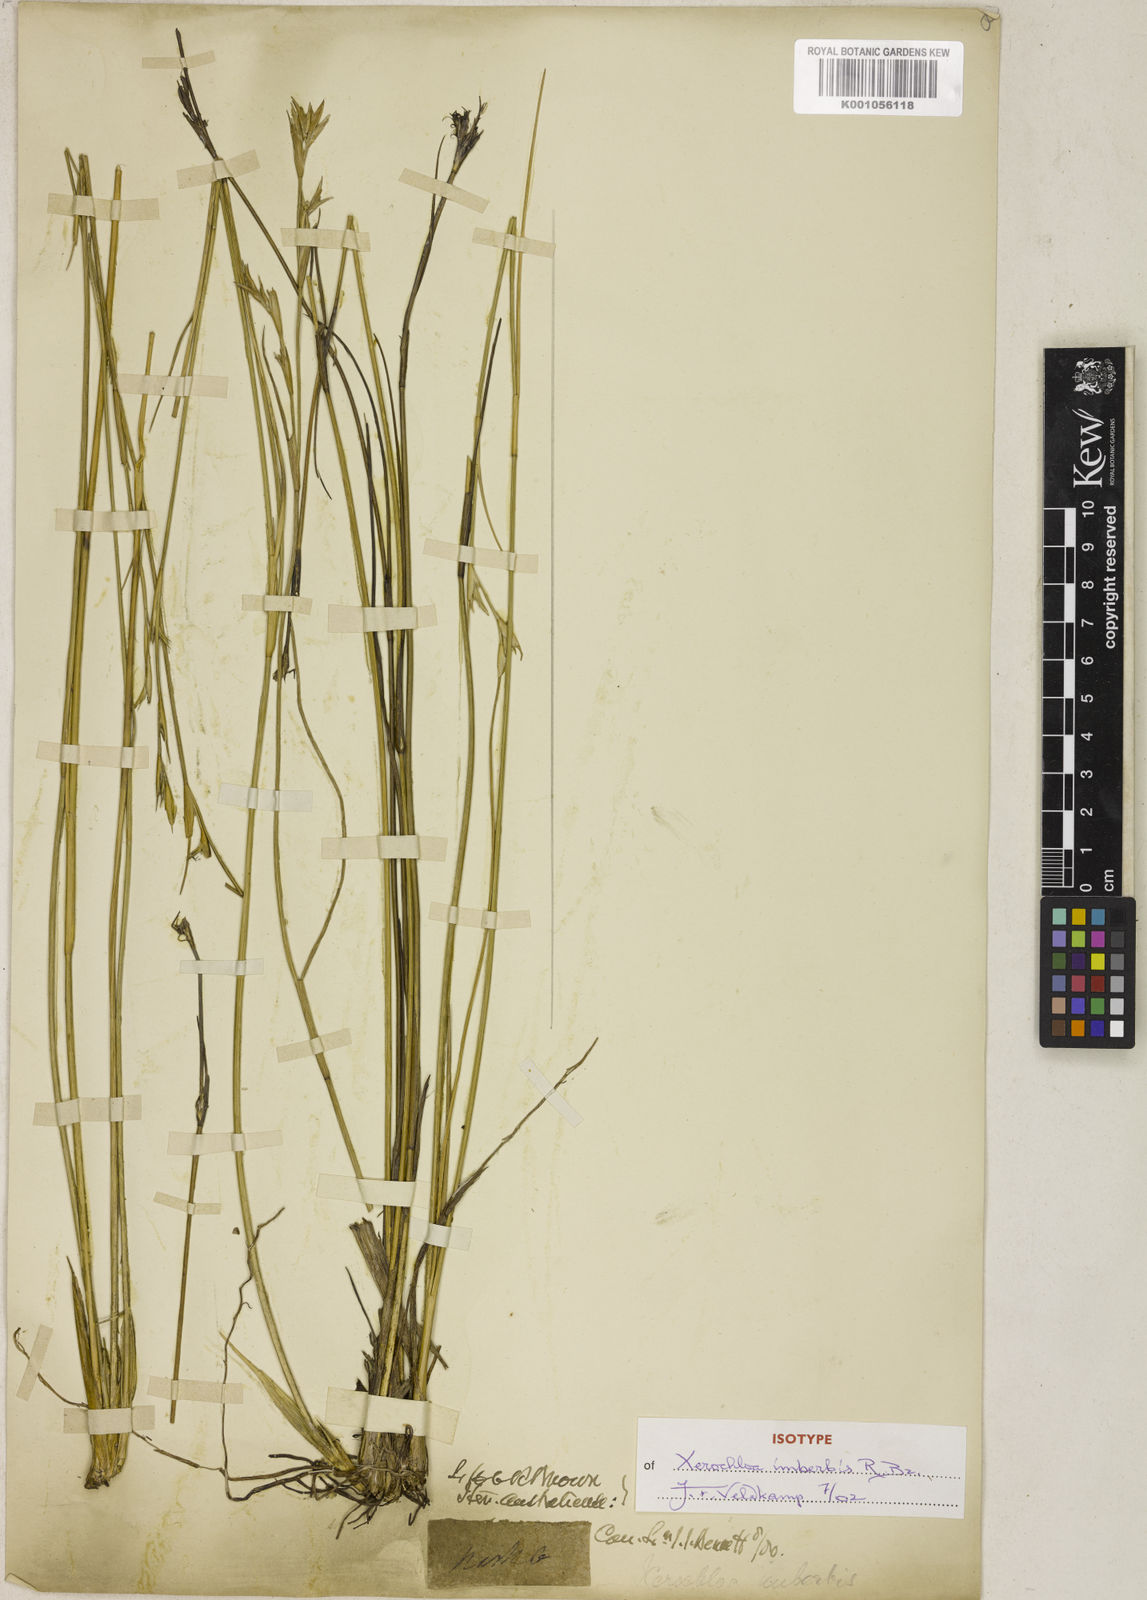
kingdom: Plantae
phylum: Tracheophyta
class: Liliopsida
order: Poales
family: Poaceae
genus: Xerochloa
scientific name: Xerochloa imberbis
